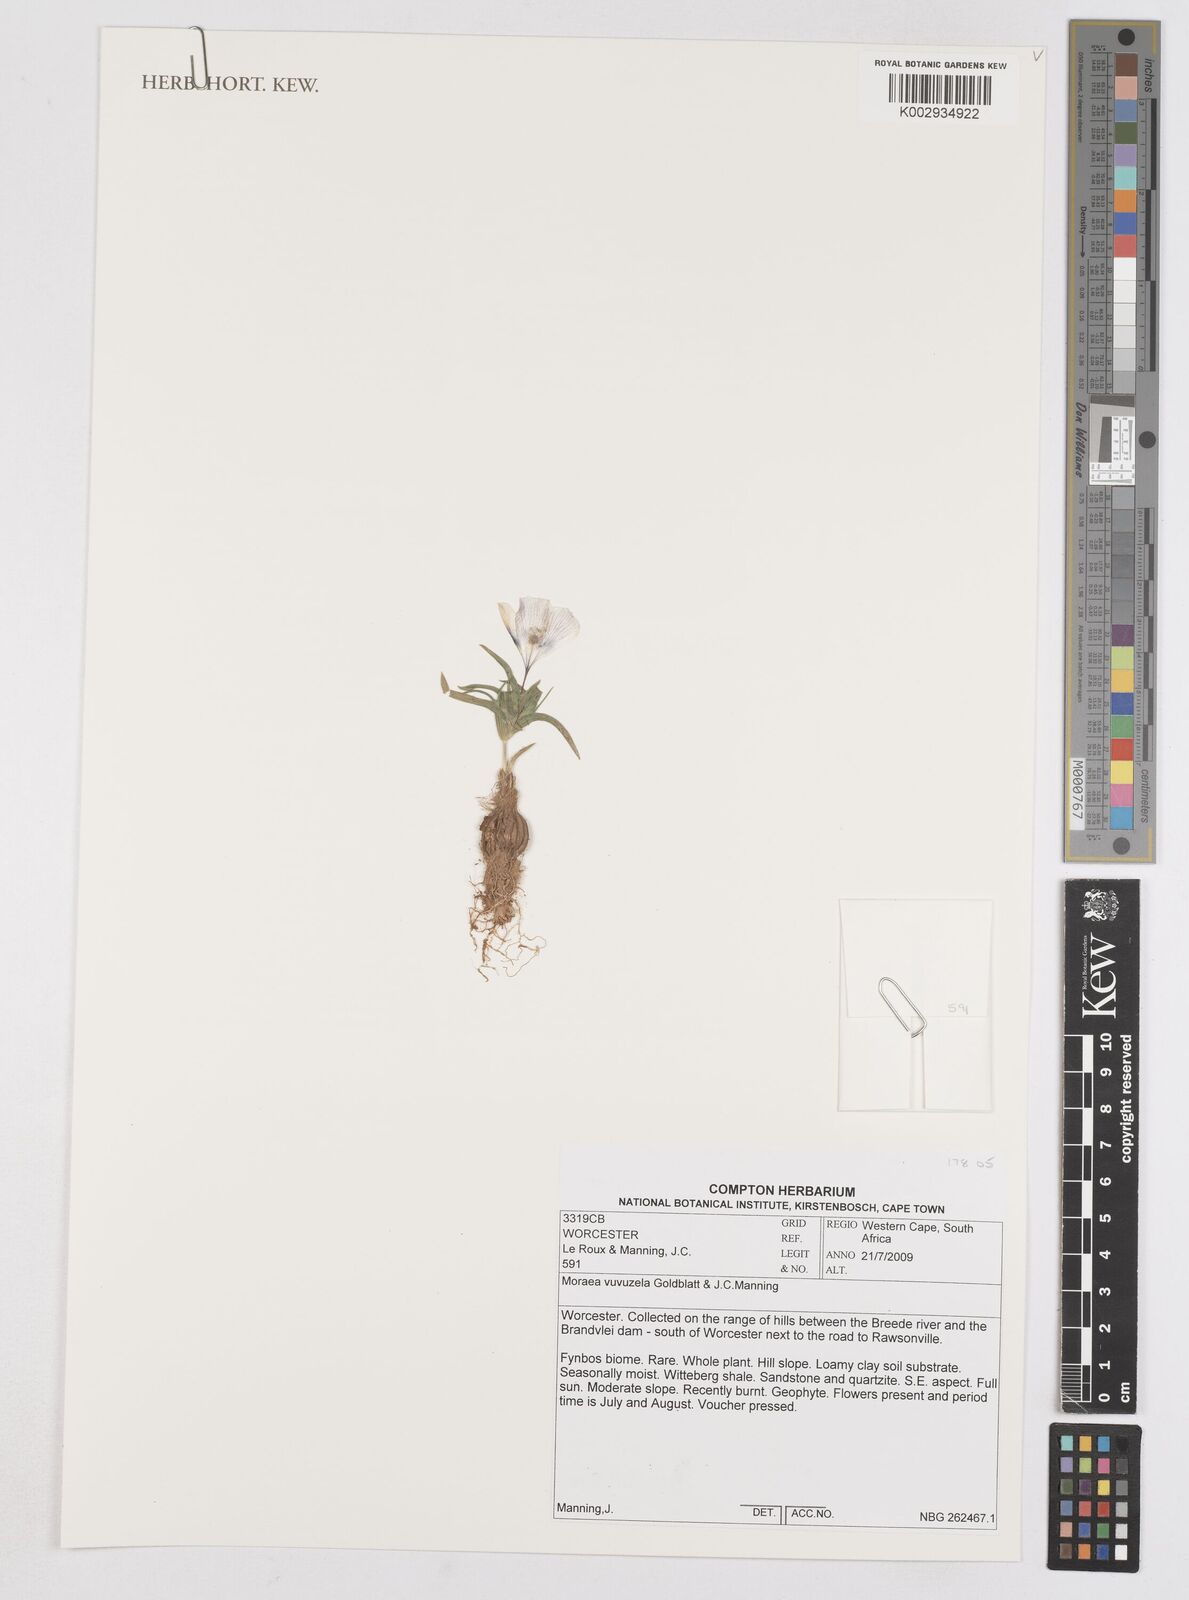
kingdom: Plantae
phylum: Tracheophyta
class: Liliopsida
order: Asparagales
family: Iridaceae
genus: Moraea
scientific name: Moraea vuvuzela
